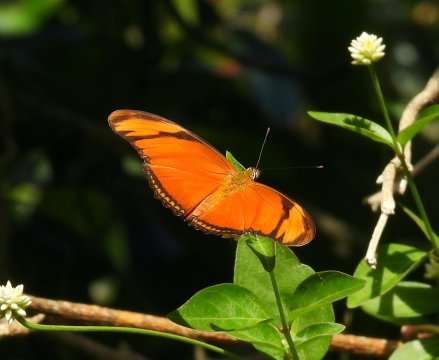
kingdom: Animalia
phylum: Arthropoda
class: Insecta
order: Lepidoptera
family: Nymphalidae
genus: Dryas
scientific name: Dryas iulia
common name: Julia
